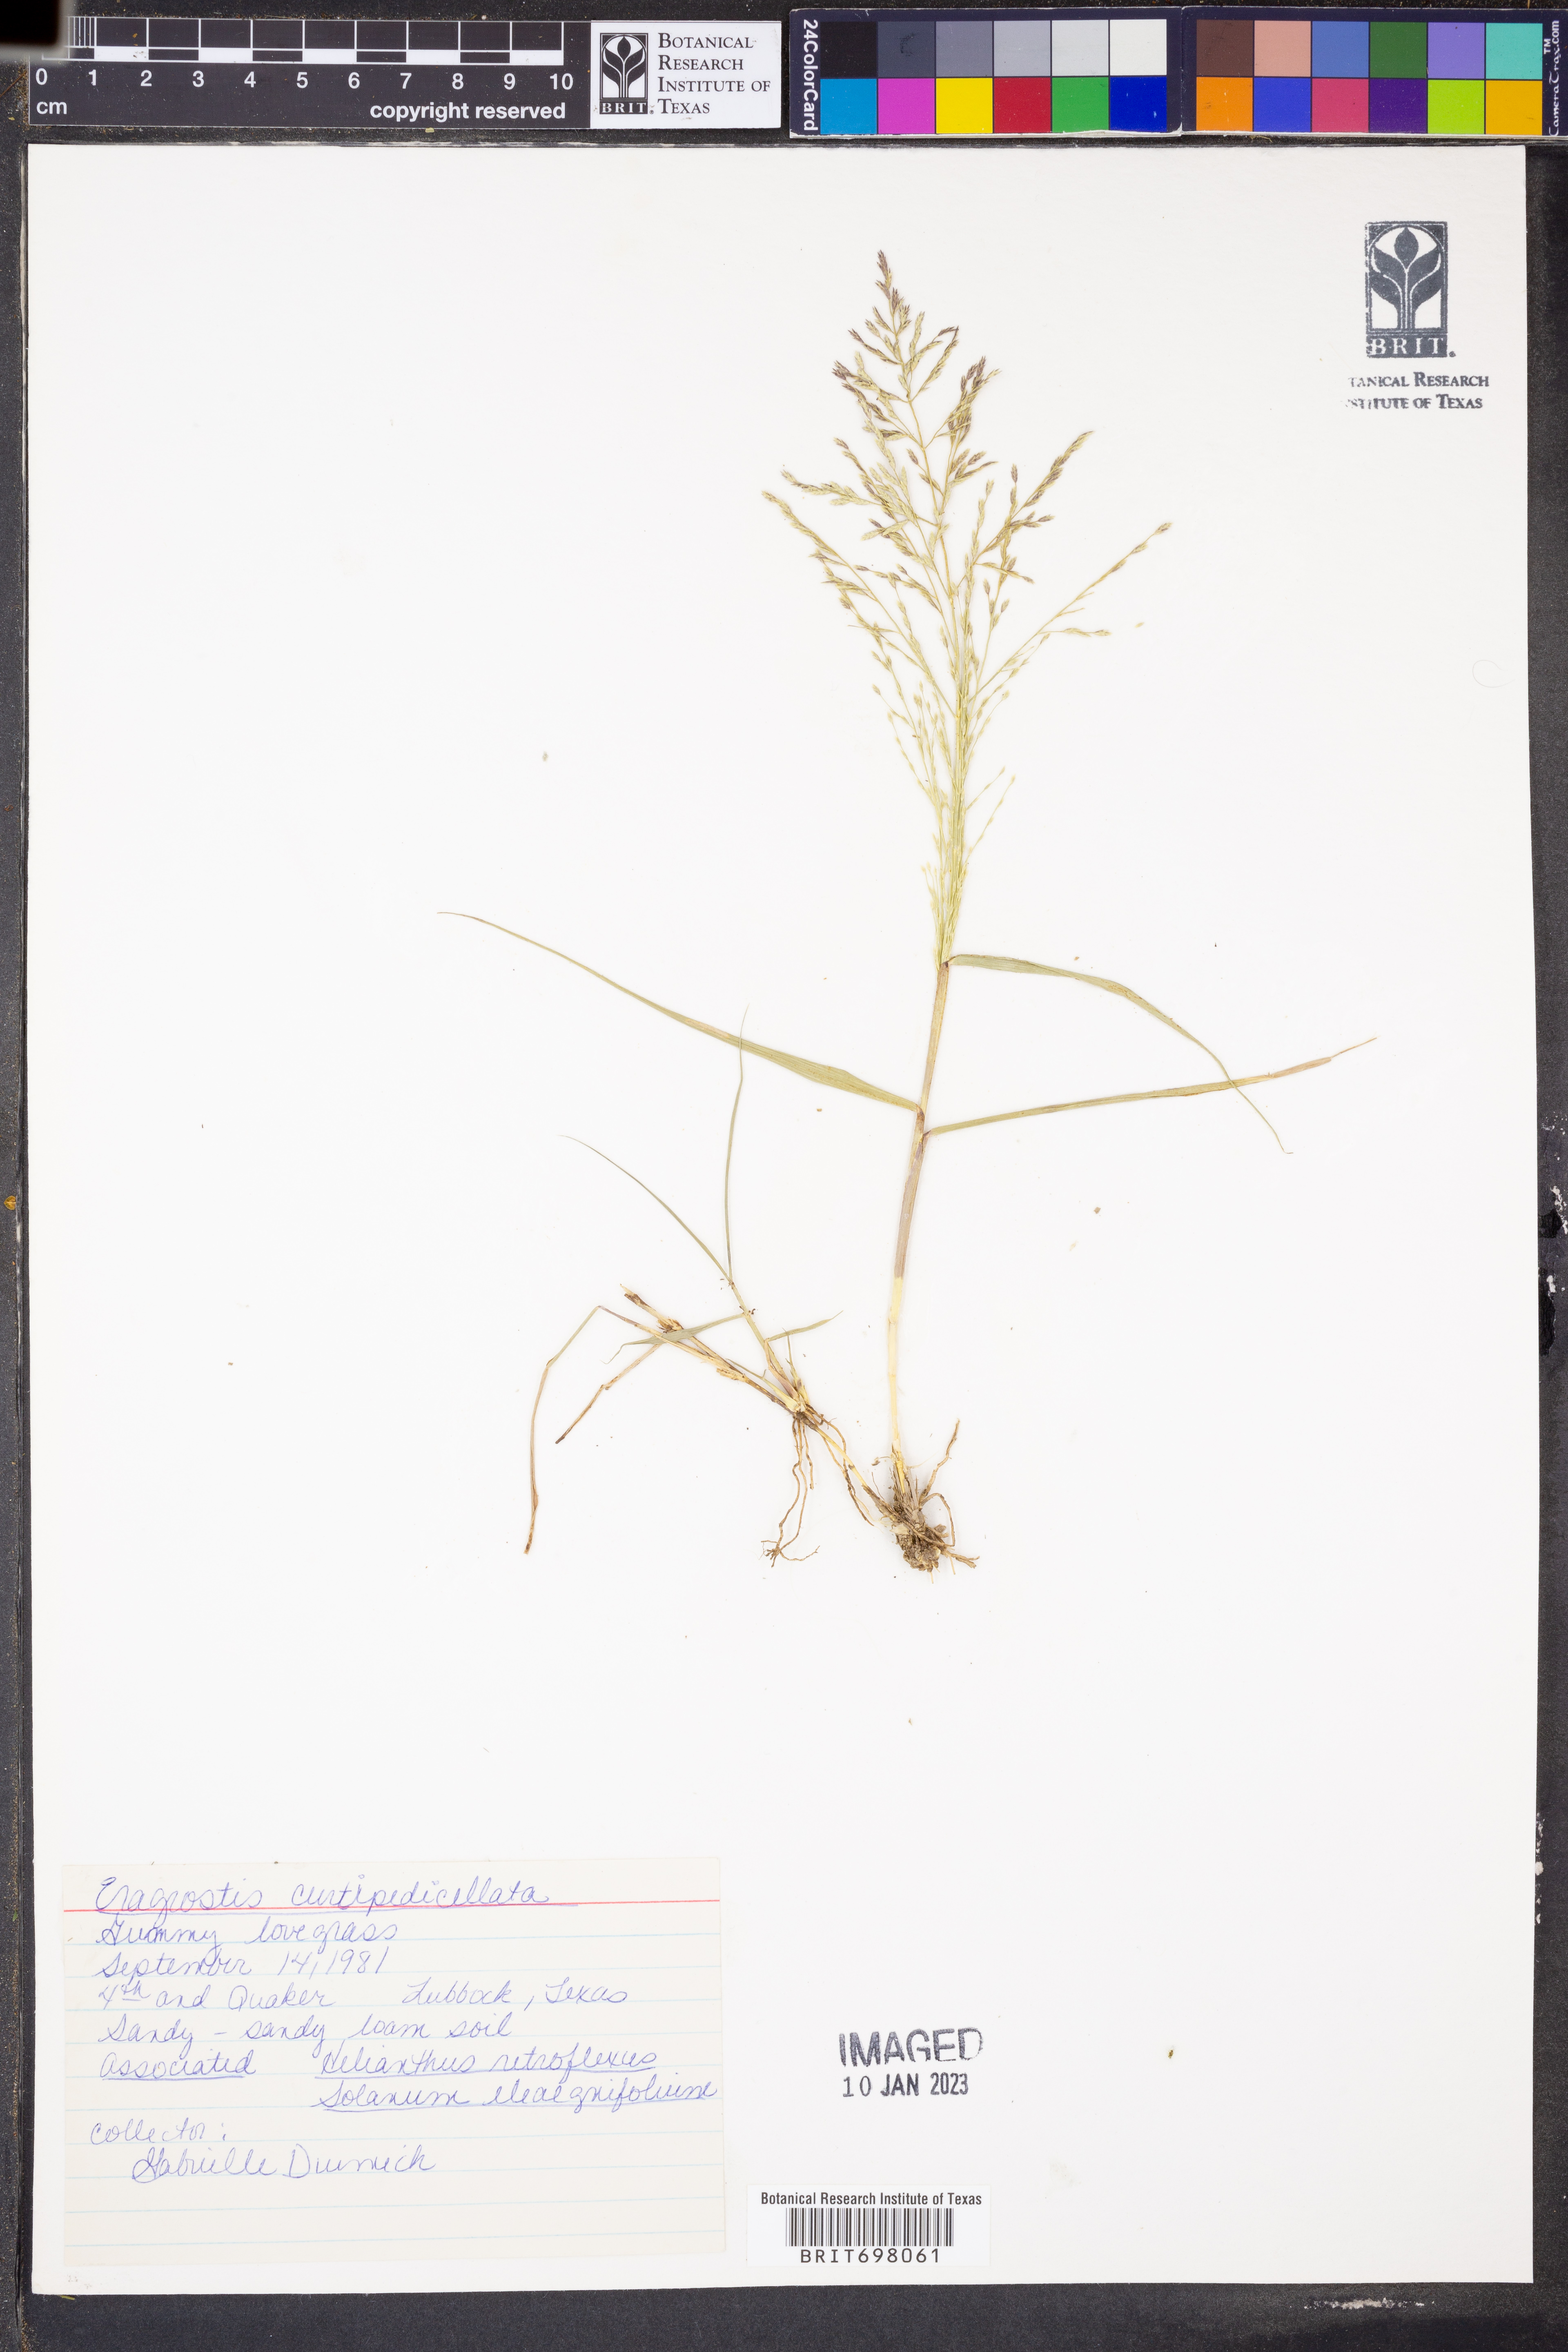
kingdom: Plantae
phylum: Tracheophyta
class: Liliopsida
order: Poales
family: Poaceae
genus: Eragrostis
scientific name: Eragrostis curtipedicellata
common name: Gummy love grass
